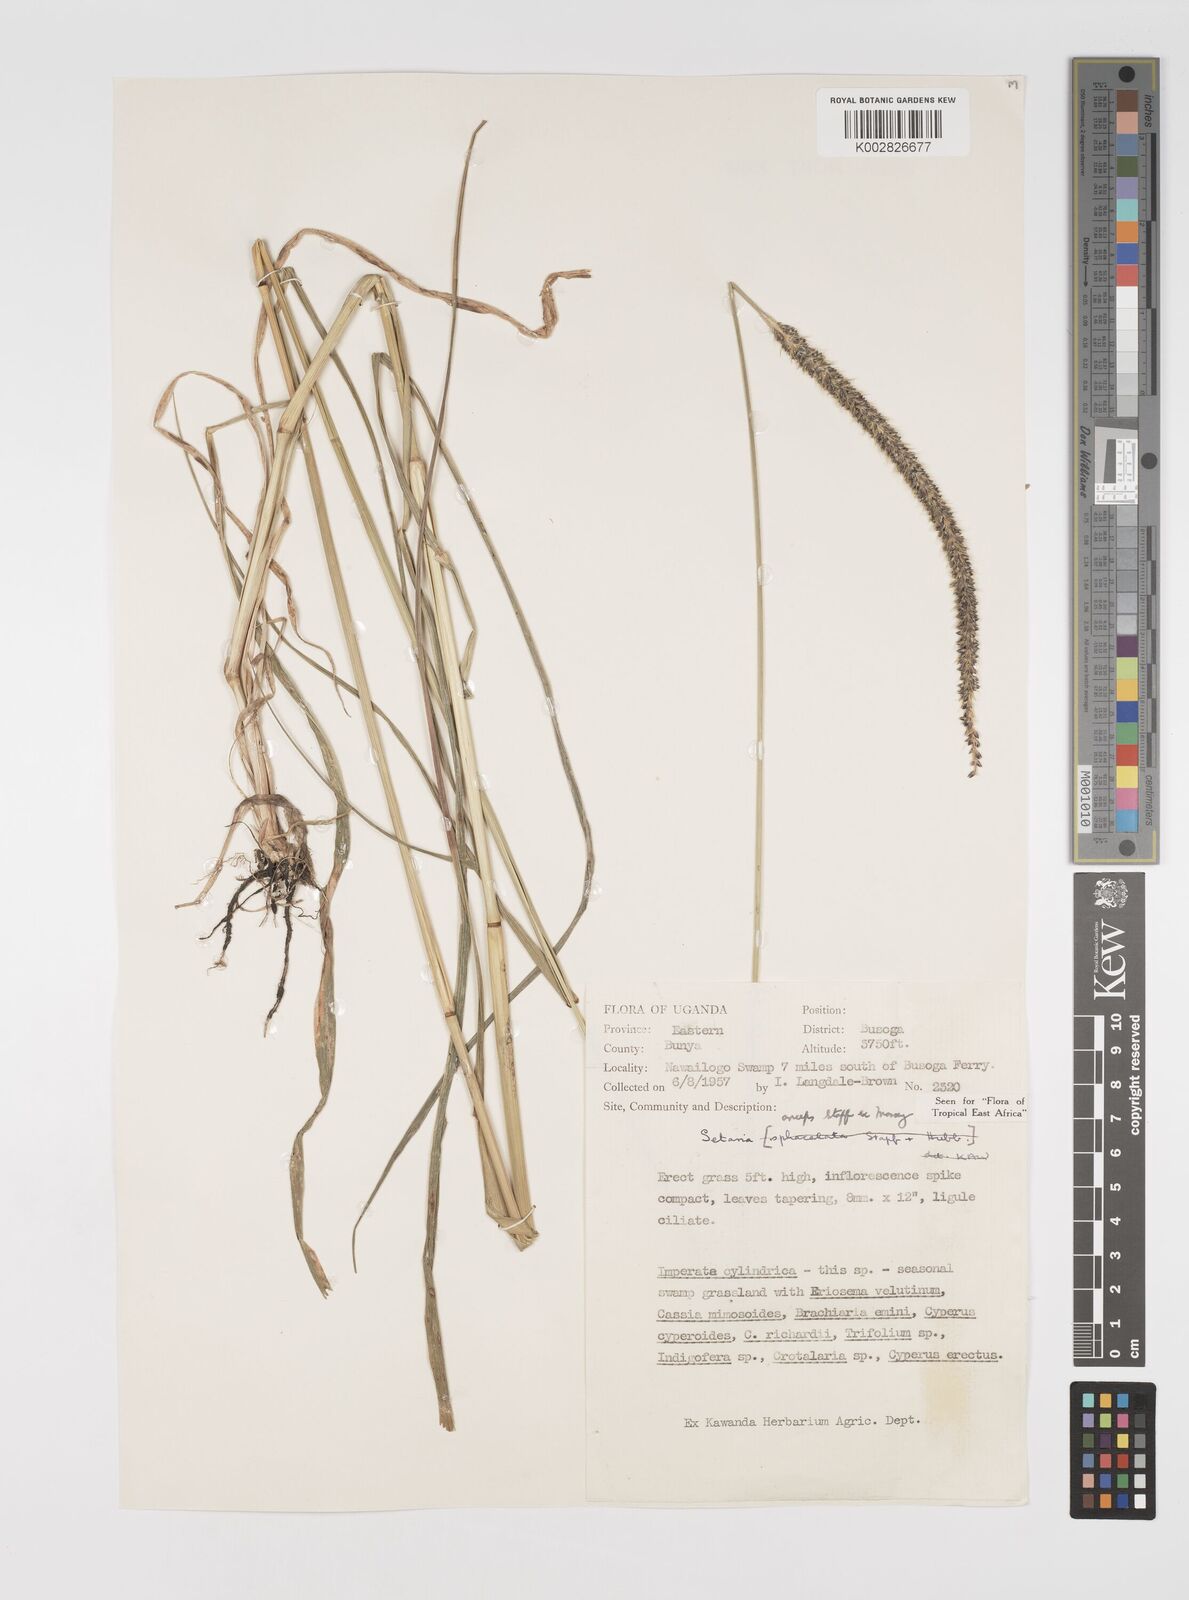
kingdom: Plantae
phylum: Tracheophyta
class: Liliopsida
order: Poales
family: Poaceae
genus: Setaria
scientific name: Setaria sphacelata
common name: African bristlegrass
